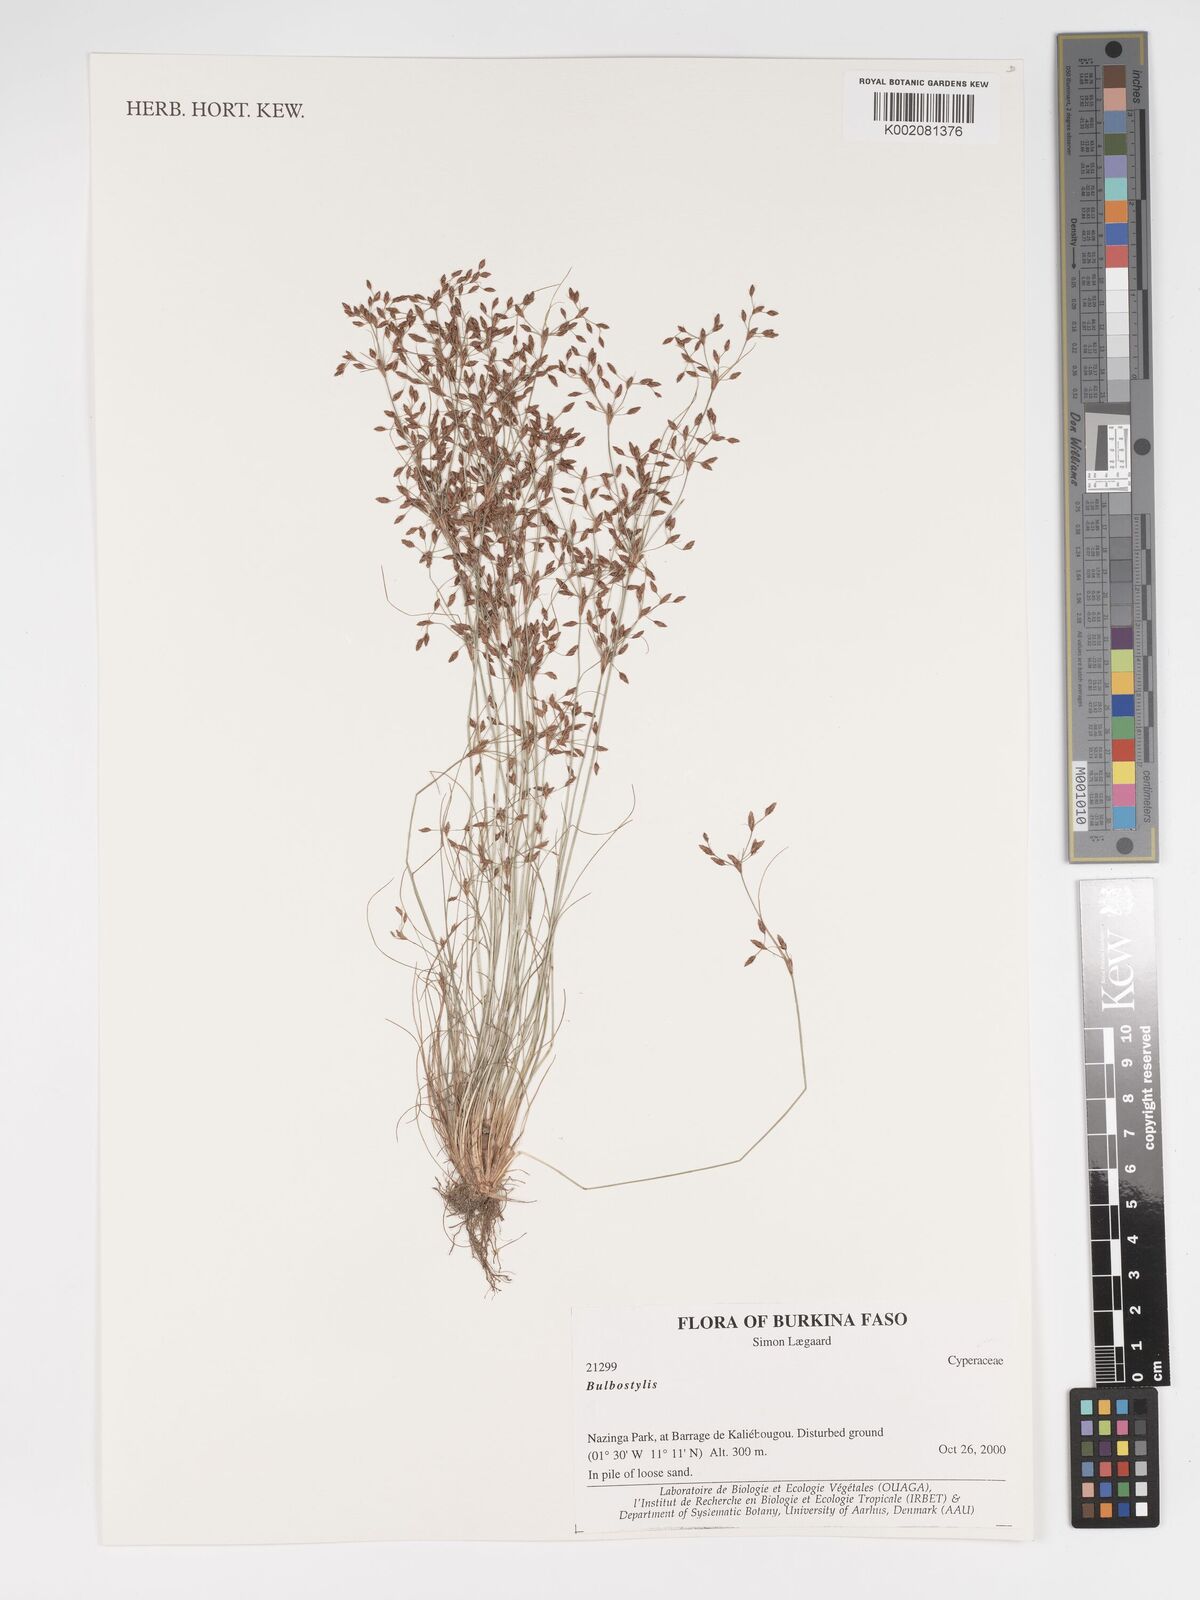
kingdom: Plantae
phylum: Tracheophyta
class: Liliopsida
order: Poales
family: Cyperaceae
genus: Bulbostylis
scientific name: Bulbostylis
